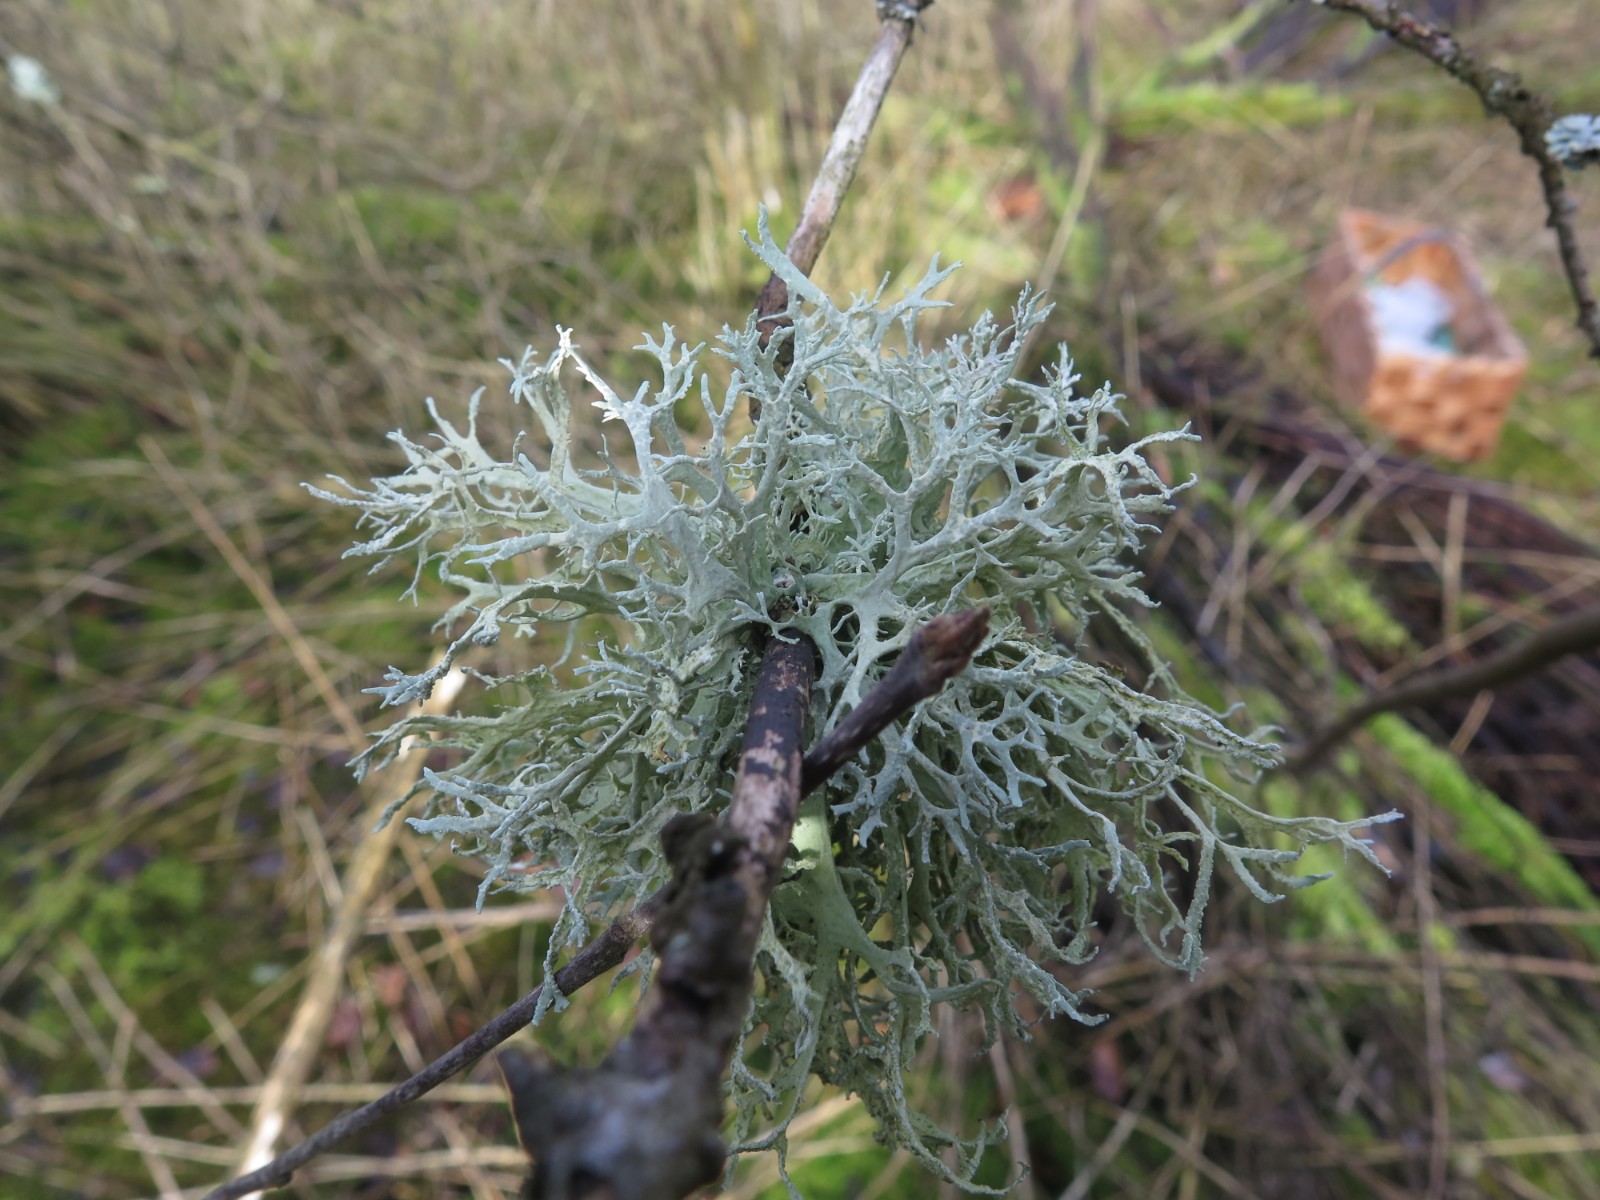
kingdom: Fungi
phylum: Ascomycota
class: Lecanoromycetes
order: Lecanorales
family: Parmeliaceae
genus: Evernia
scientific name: Evernia prunastri
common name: almindelig slåenlav
